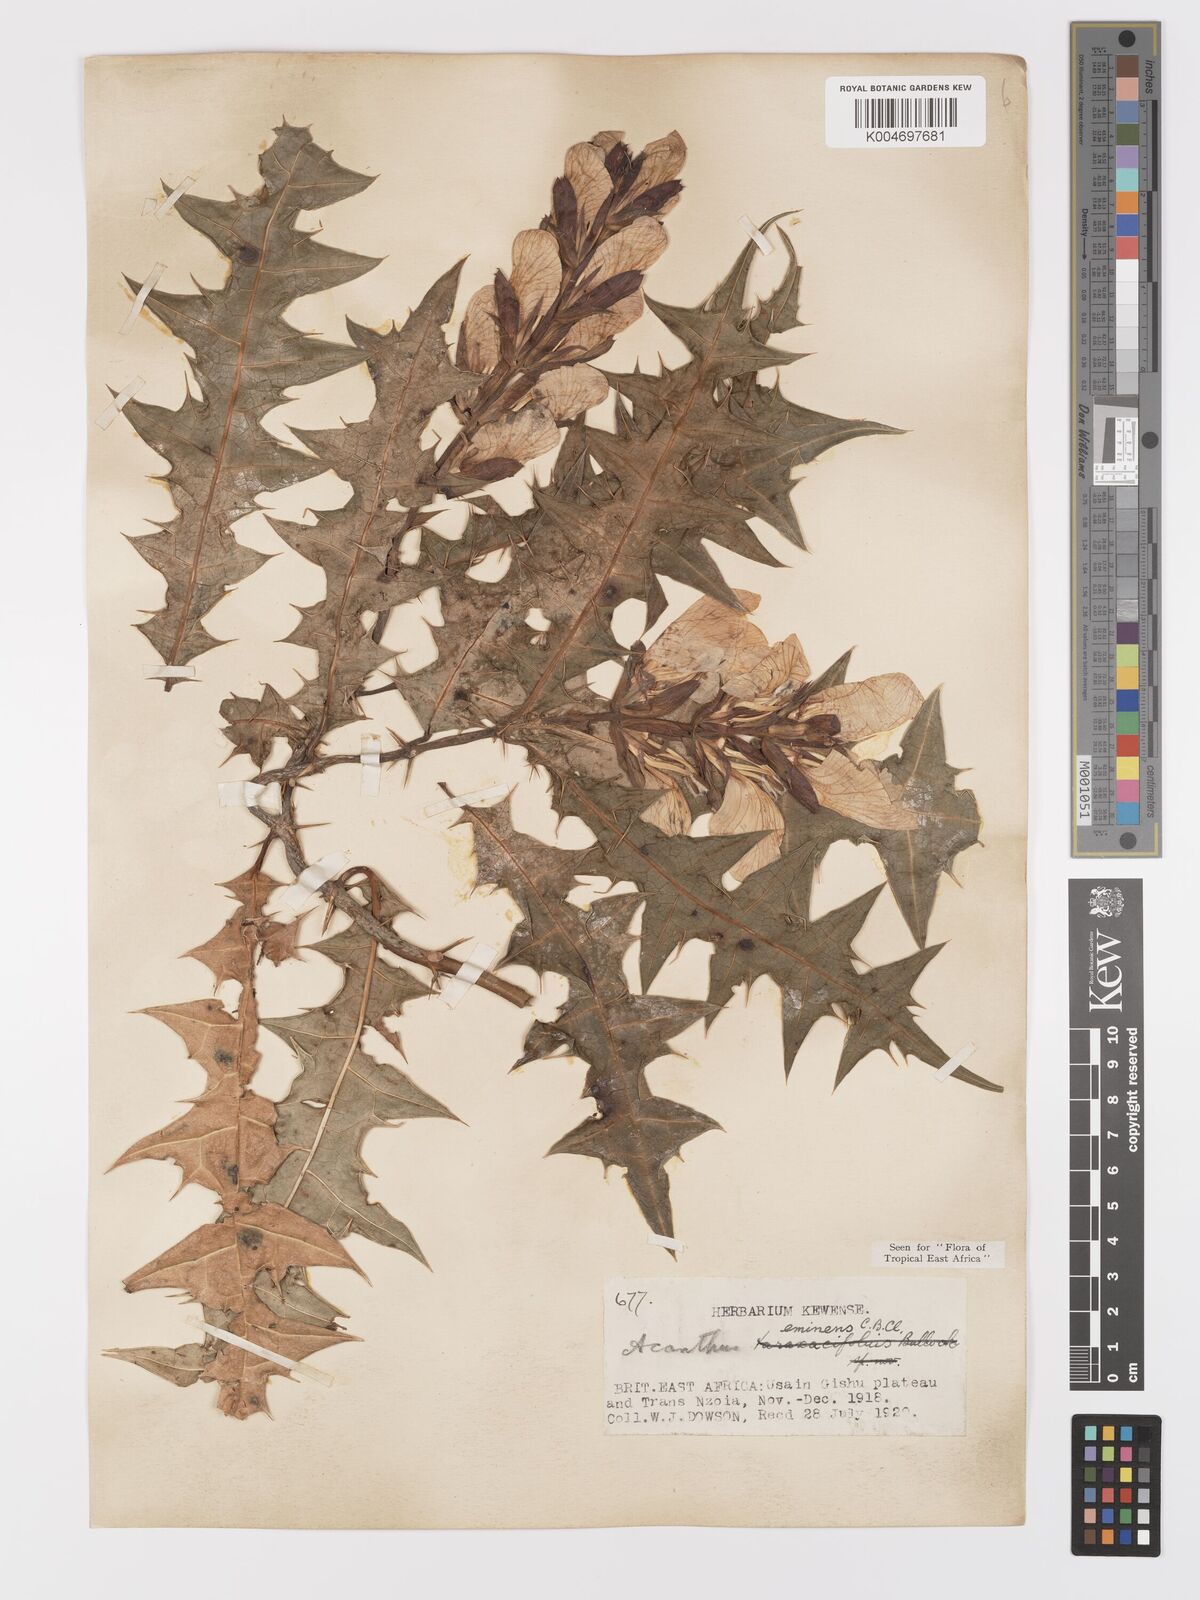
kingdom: Plantae
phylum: Tracheophyta
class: Magnoliopsida
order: Lamiales
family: Acanthaceae
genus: Acanthus
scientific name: Acanthus eminens
